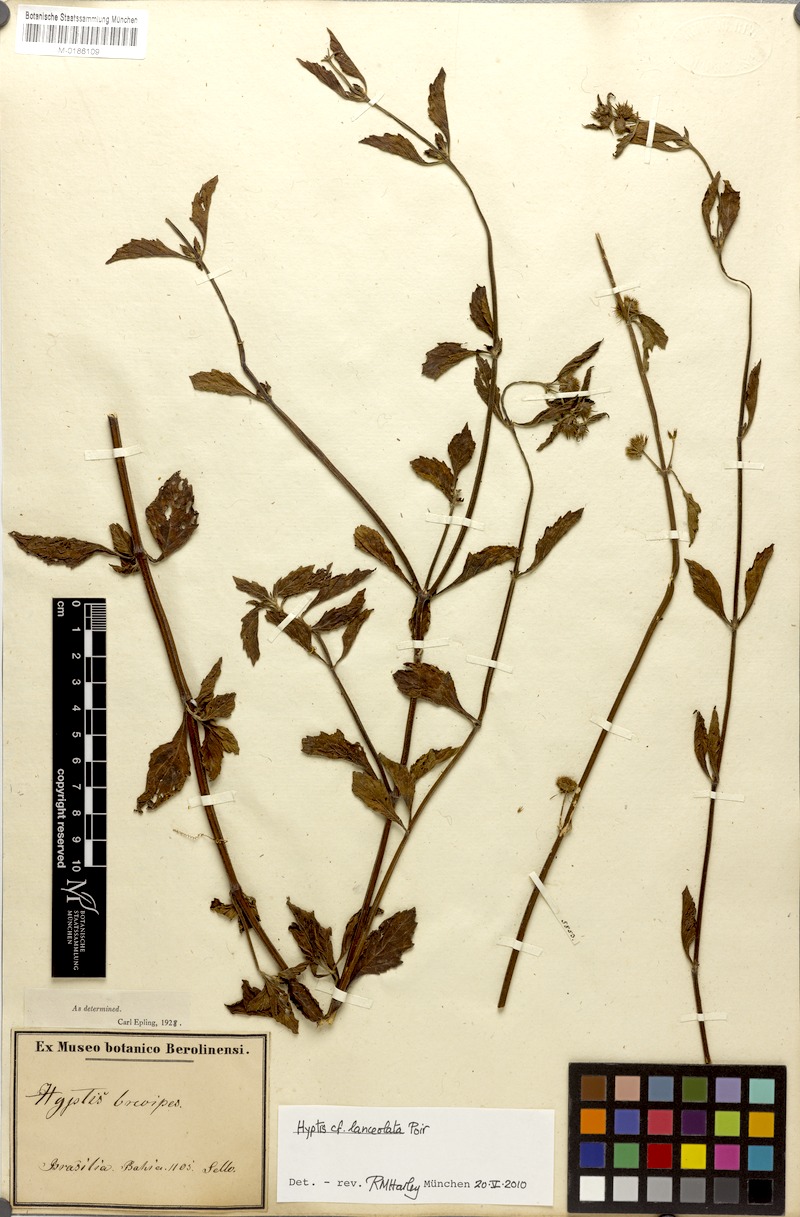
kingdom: Plantae
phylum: Tracheophyta
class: Magnoliopsida
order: Lamiales
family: Lamiaceae
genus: Hyptis
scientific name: Hyptis lanceolata
